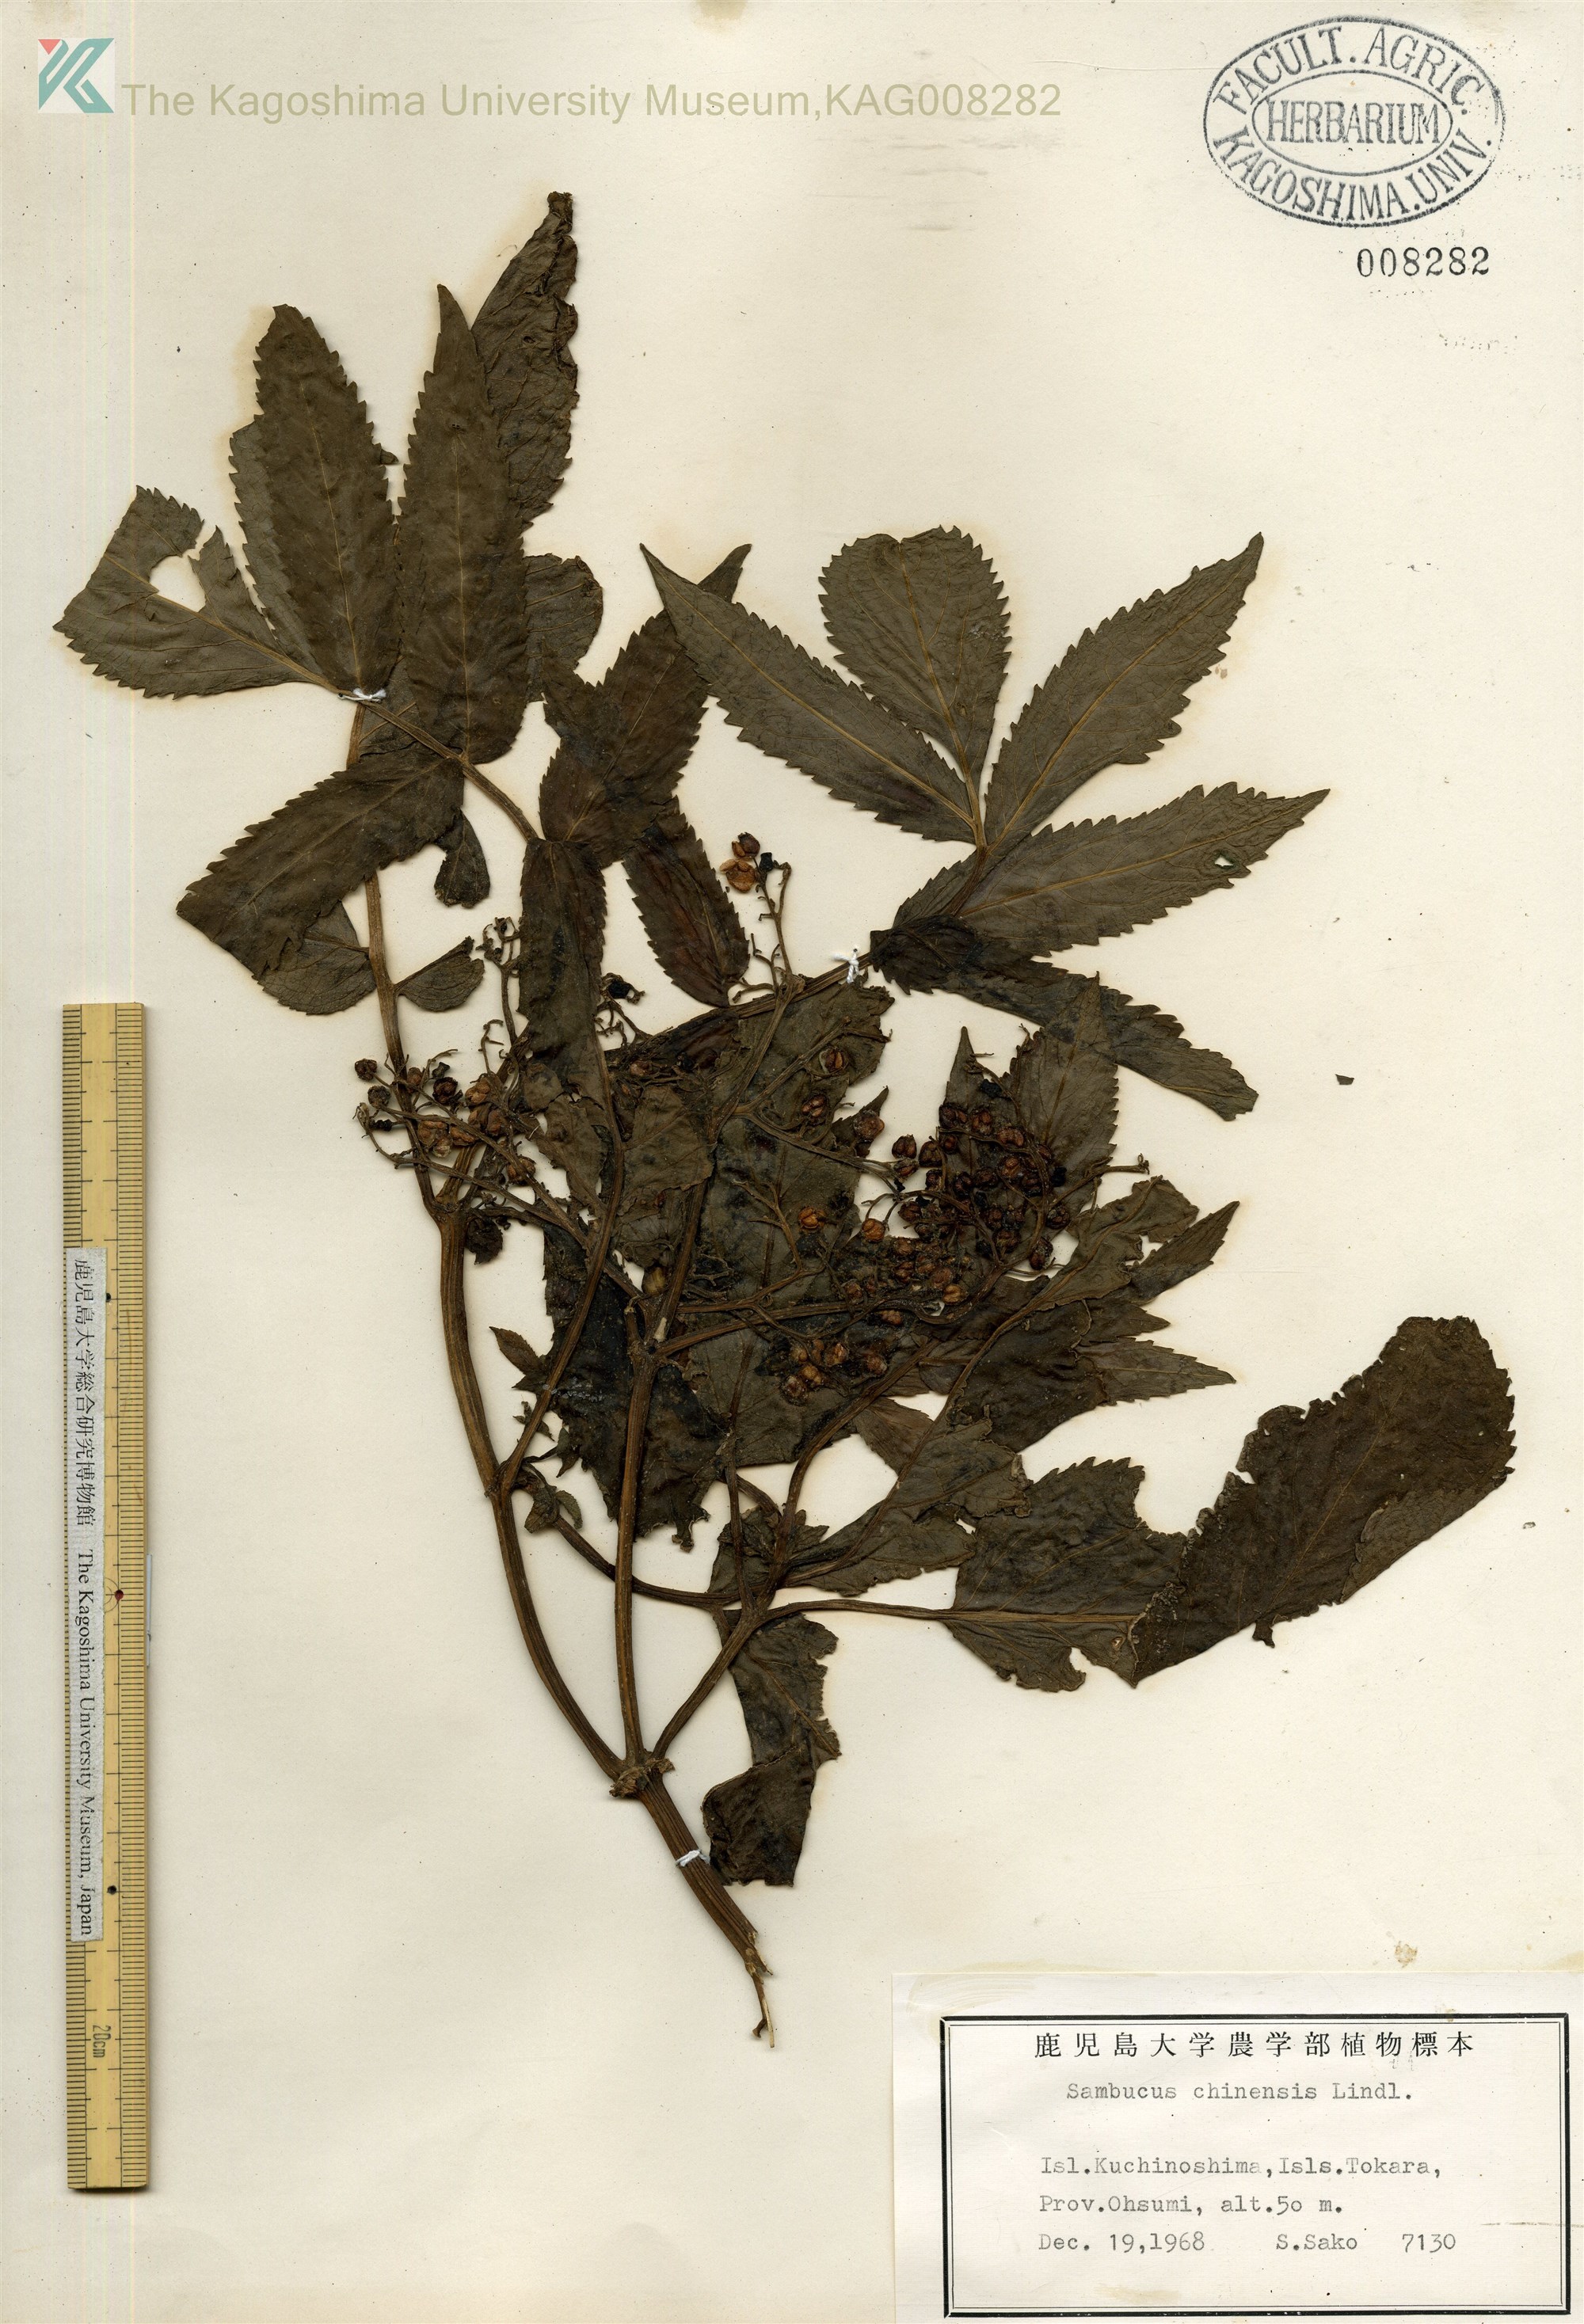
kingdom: Plantae
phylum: Tracheophyta
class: Magnoliopsida
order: Dipsacales
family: Viburnaceae
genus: Sambucus
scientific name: Sambucus javanica
